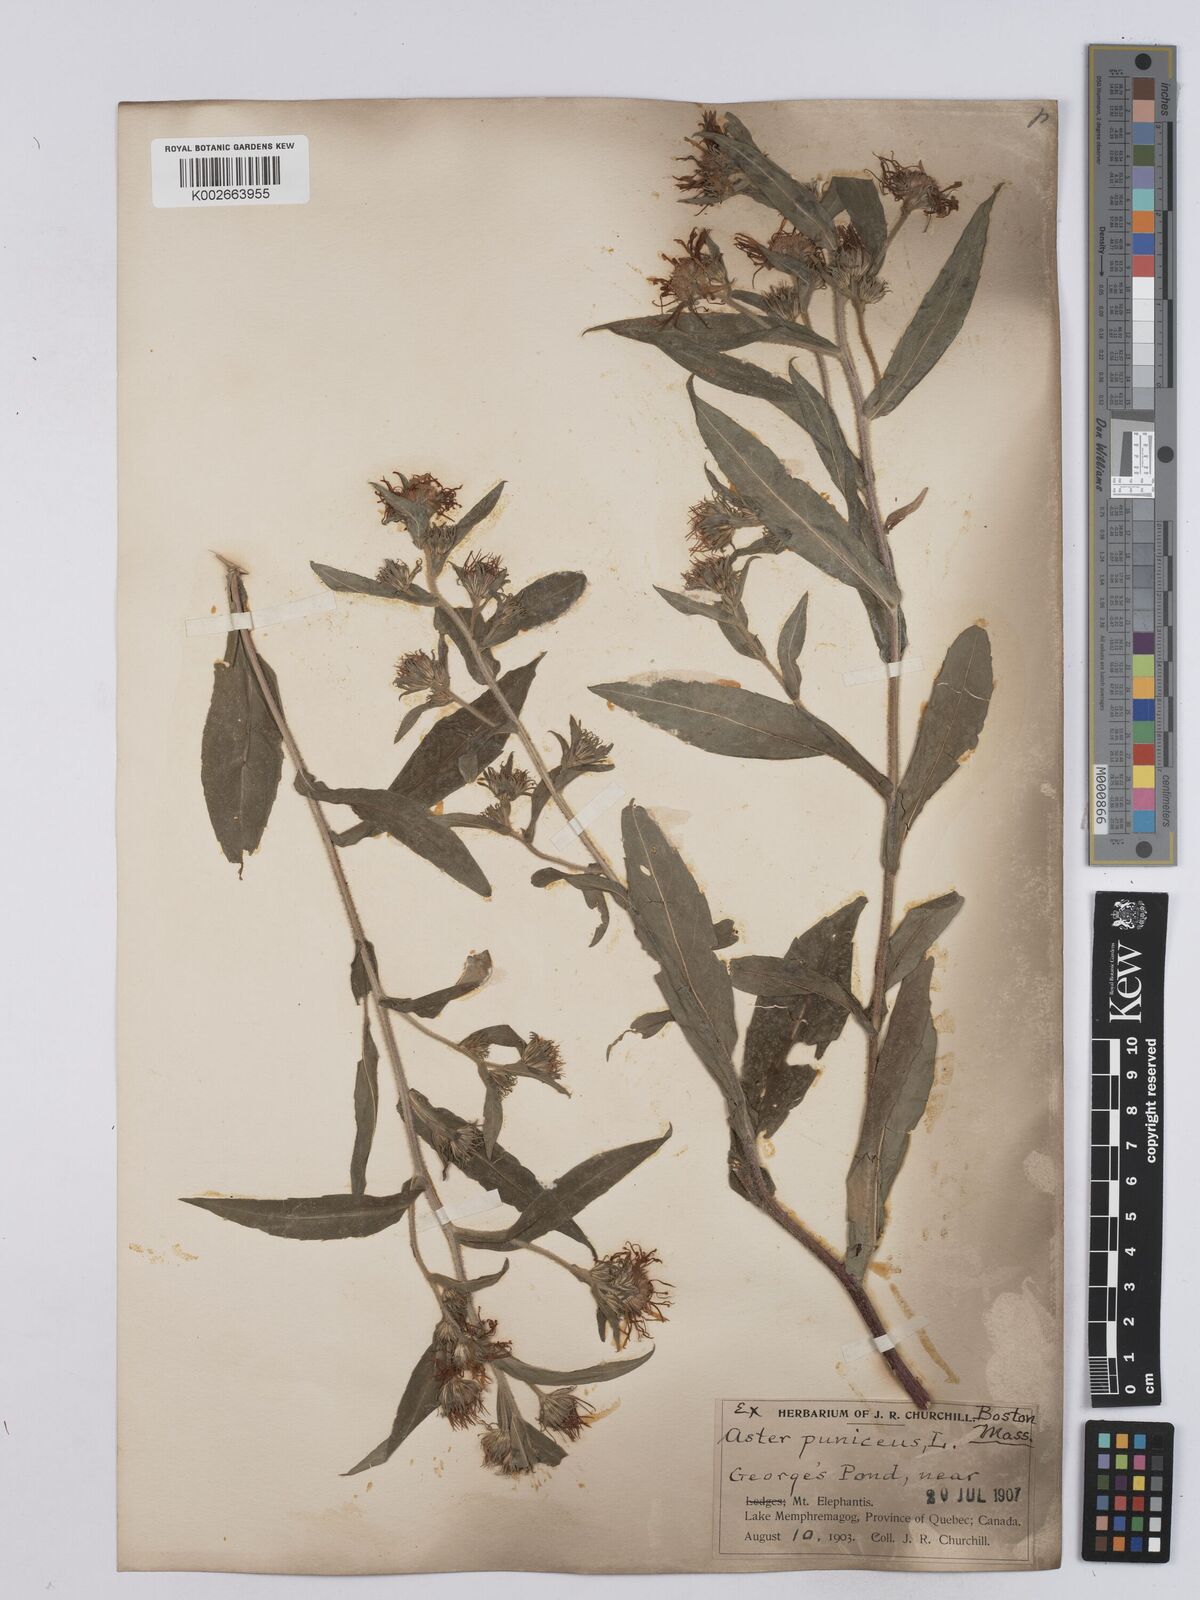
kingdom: Plantae
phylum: Tracheophyta
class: Magnoliopsida
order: Asterales
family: Asteraceae
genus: Symphyotrichum
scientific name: Symphyotrichum puniceum
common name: Bog aster
